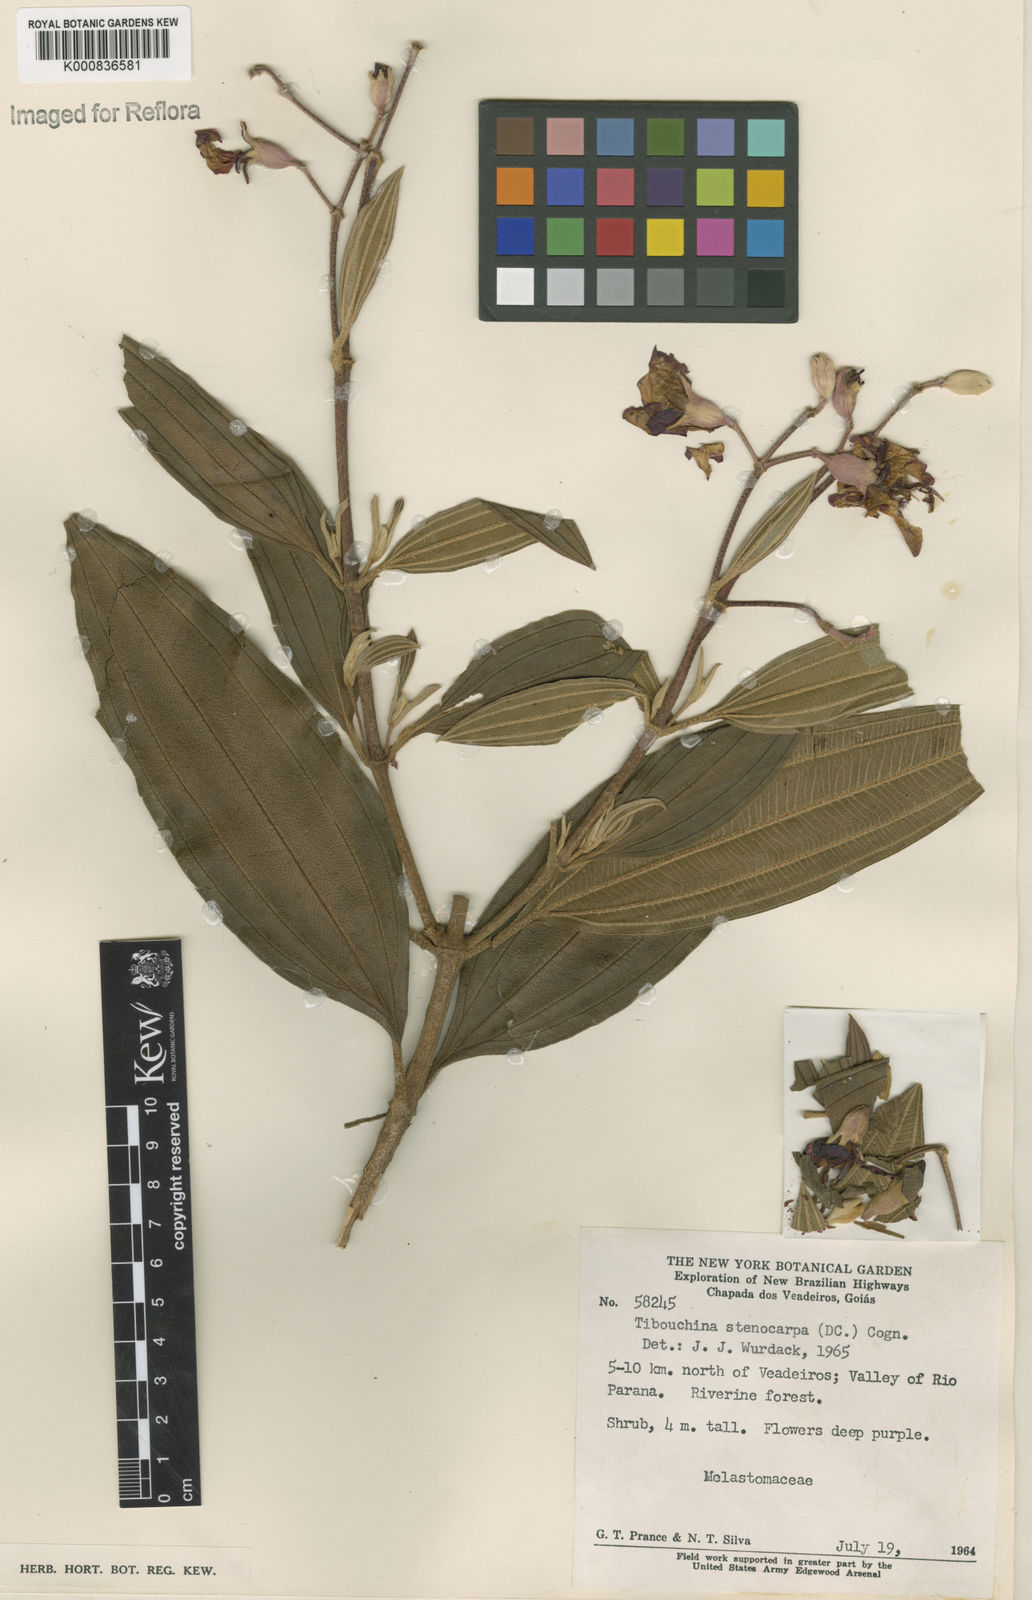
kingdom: Plantae
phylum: Tracheophyta
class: Magnoliopsida
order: Myrtales
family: Melastomataceae
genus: Pleroma
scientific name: Pleroma stenocarpum
